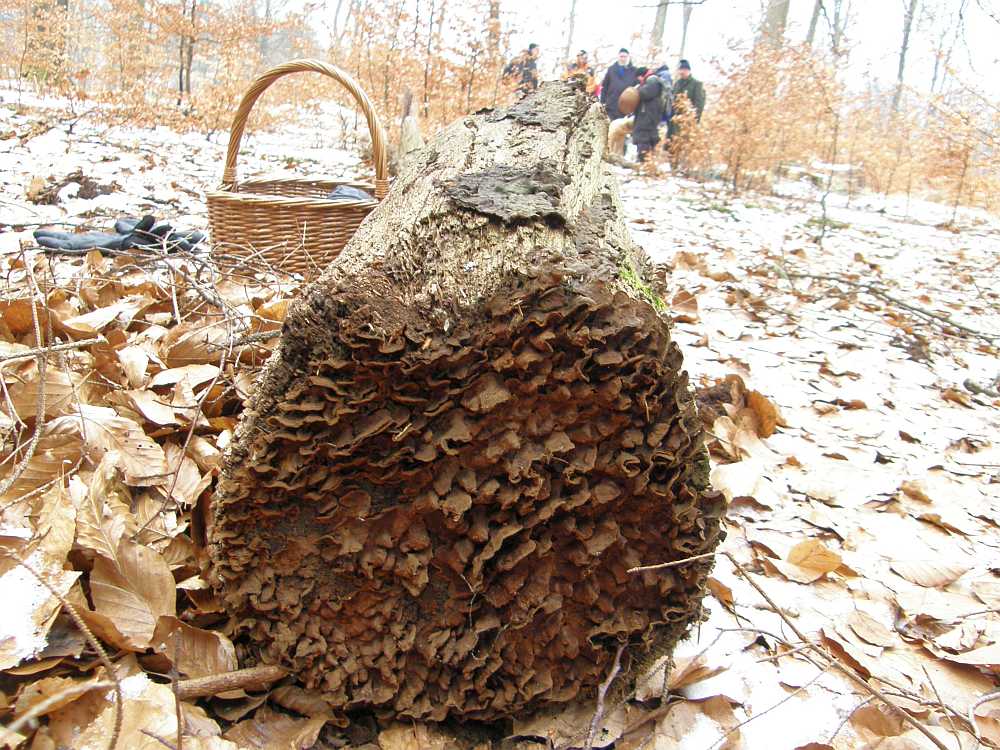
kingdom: Fungi
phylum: Basidiomycota
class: Agaricomycetes
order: Hymenochaetales
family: Hymenochaetaceae
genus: Hymenochaete
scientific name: Hymenochaete rubiginosa
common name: stiv ruslædersvamp
